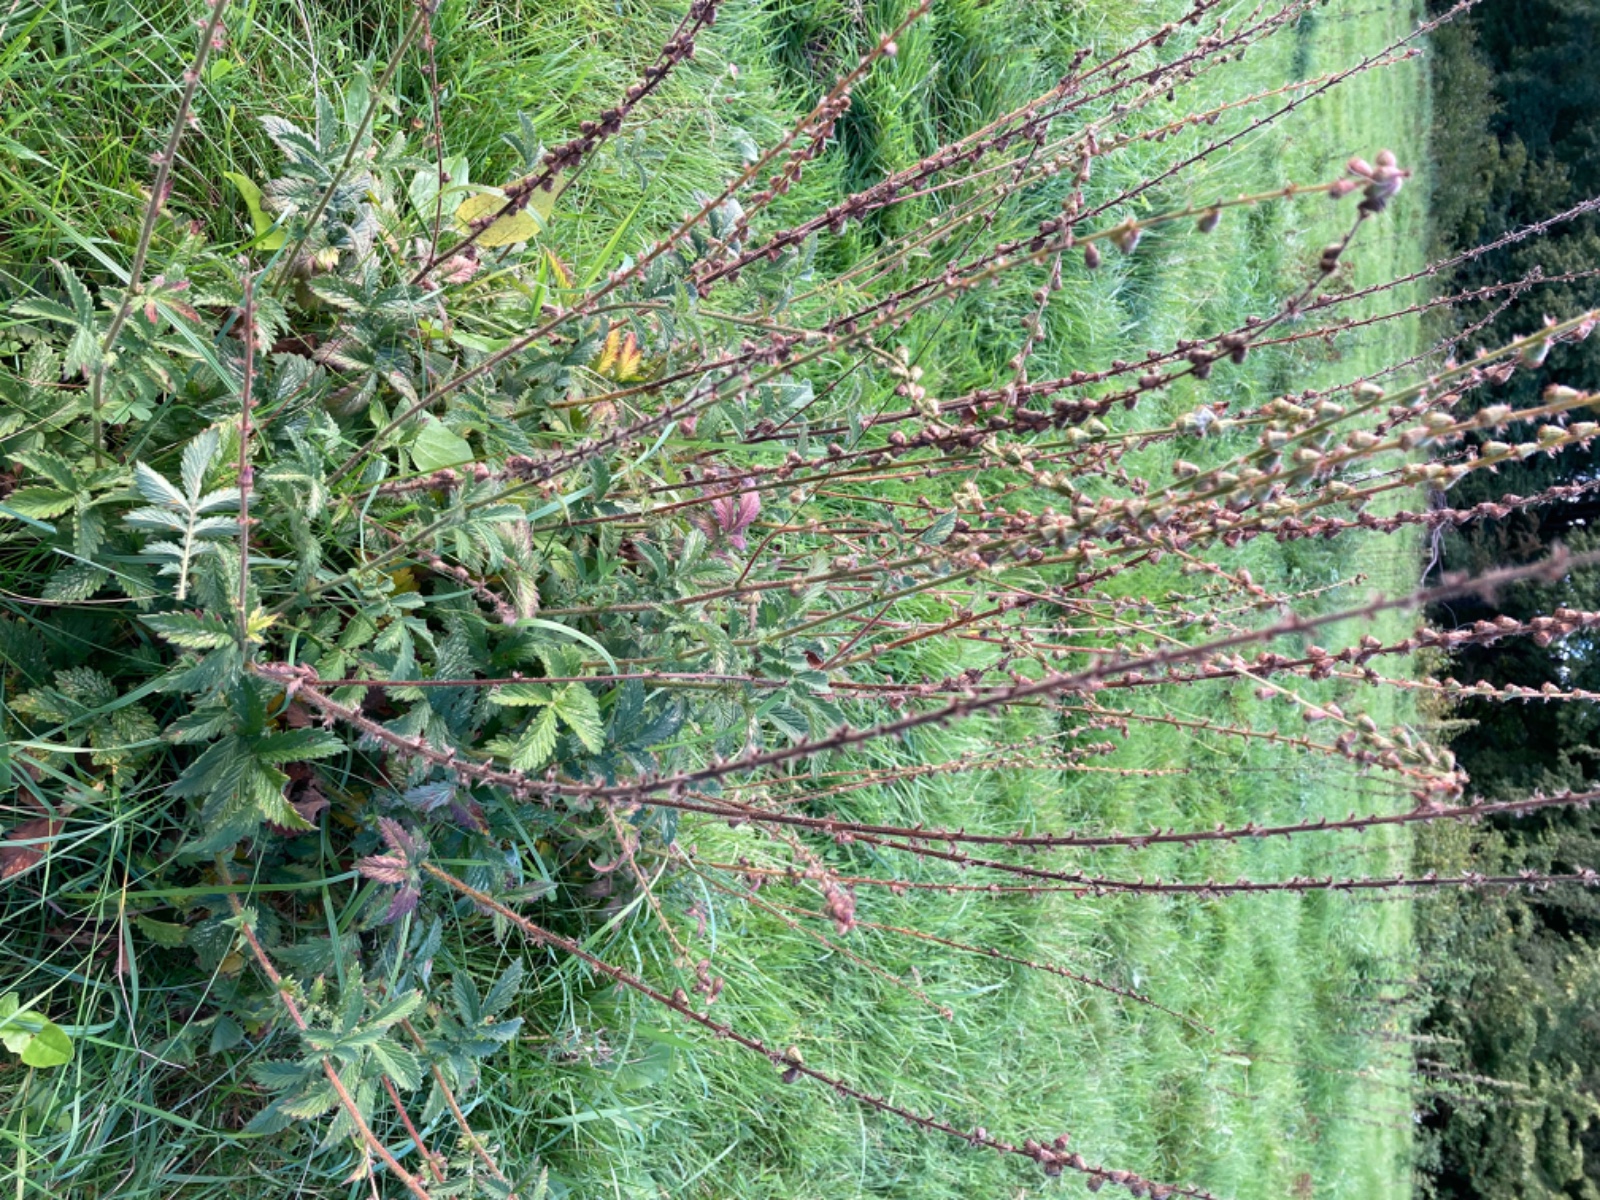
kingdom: Fungi
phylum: Basidiomycota
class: Pucciniomycetes
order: Pucciniales
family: Cronartiaceae
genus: Quasipucciniastrum
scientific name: Quasipucciniastrum ochraceum
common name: agermåne-nålerust
